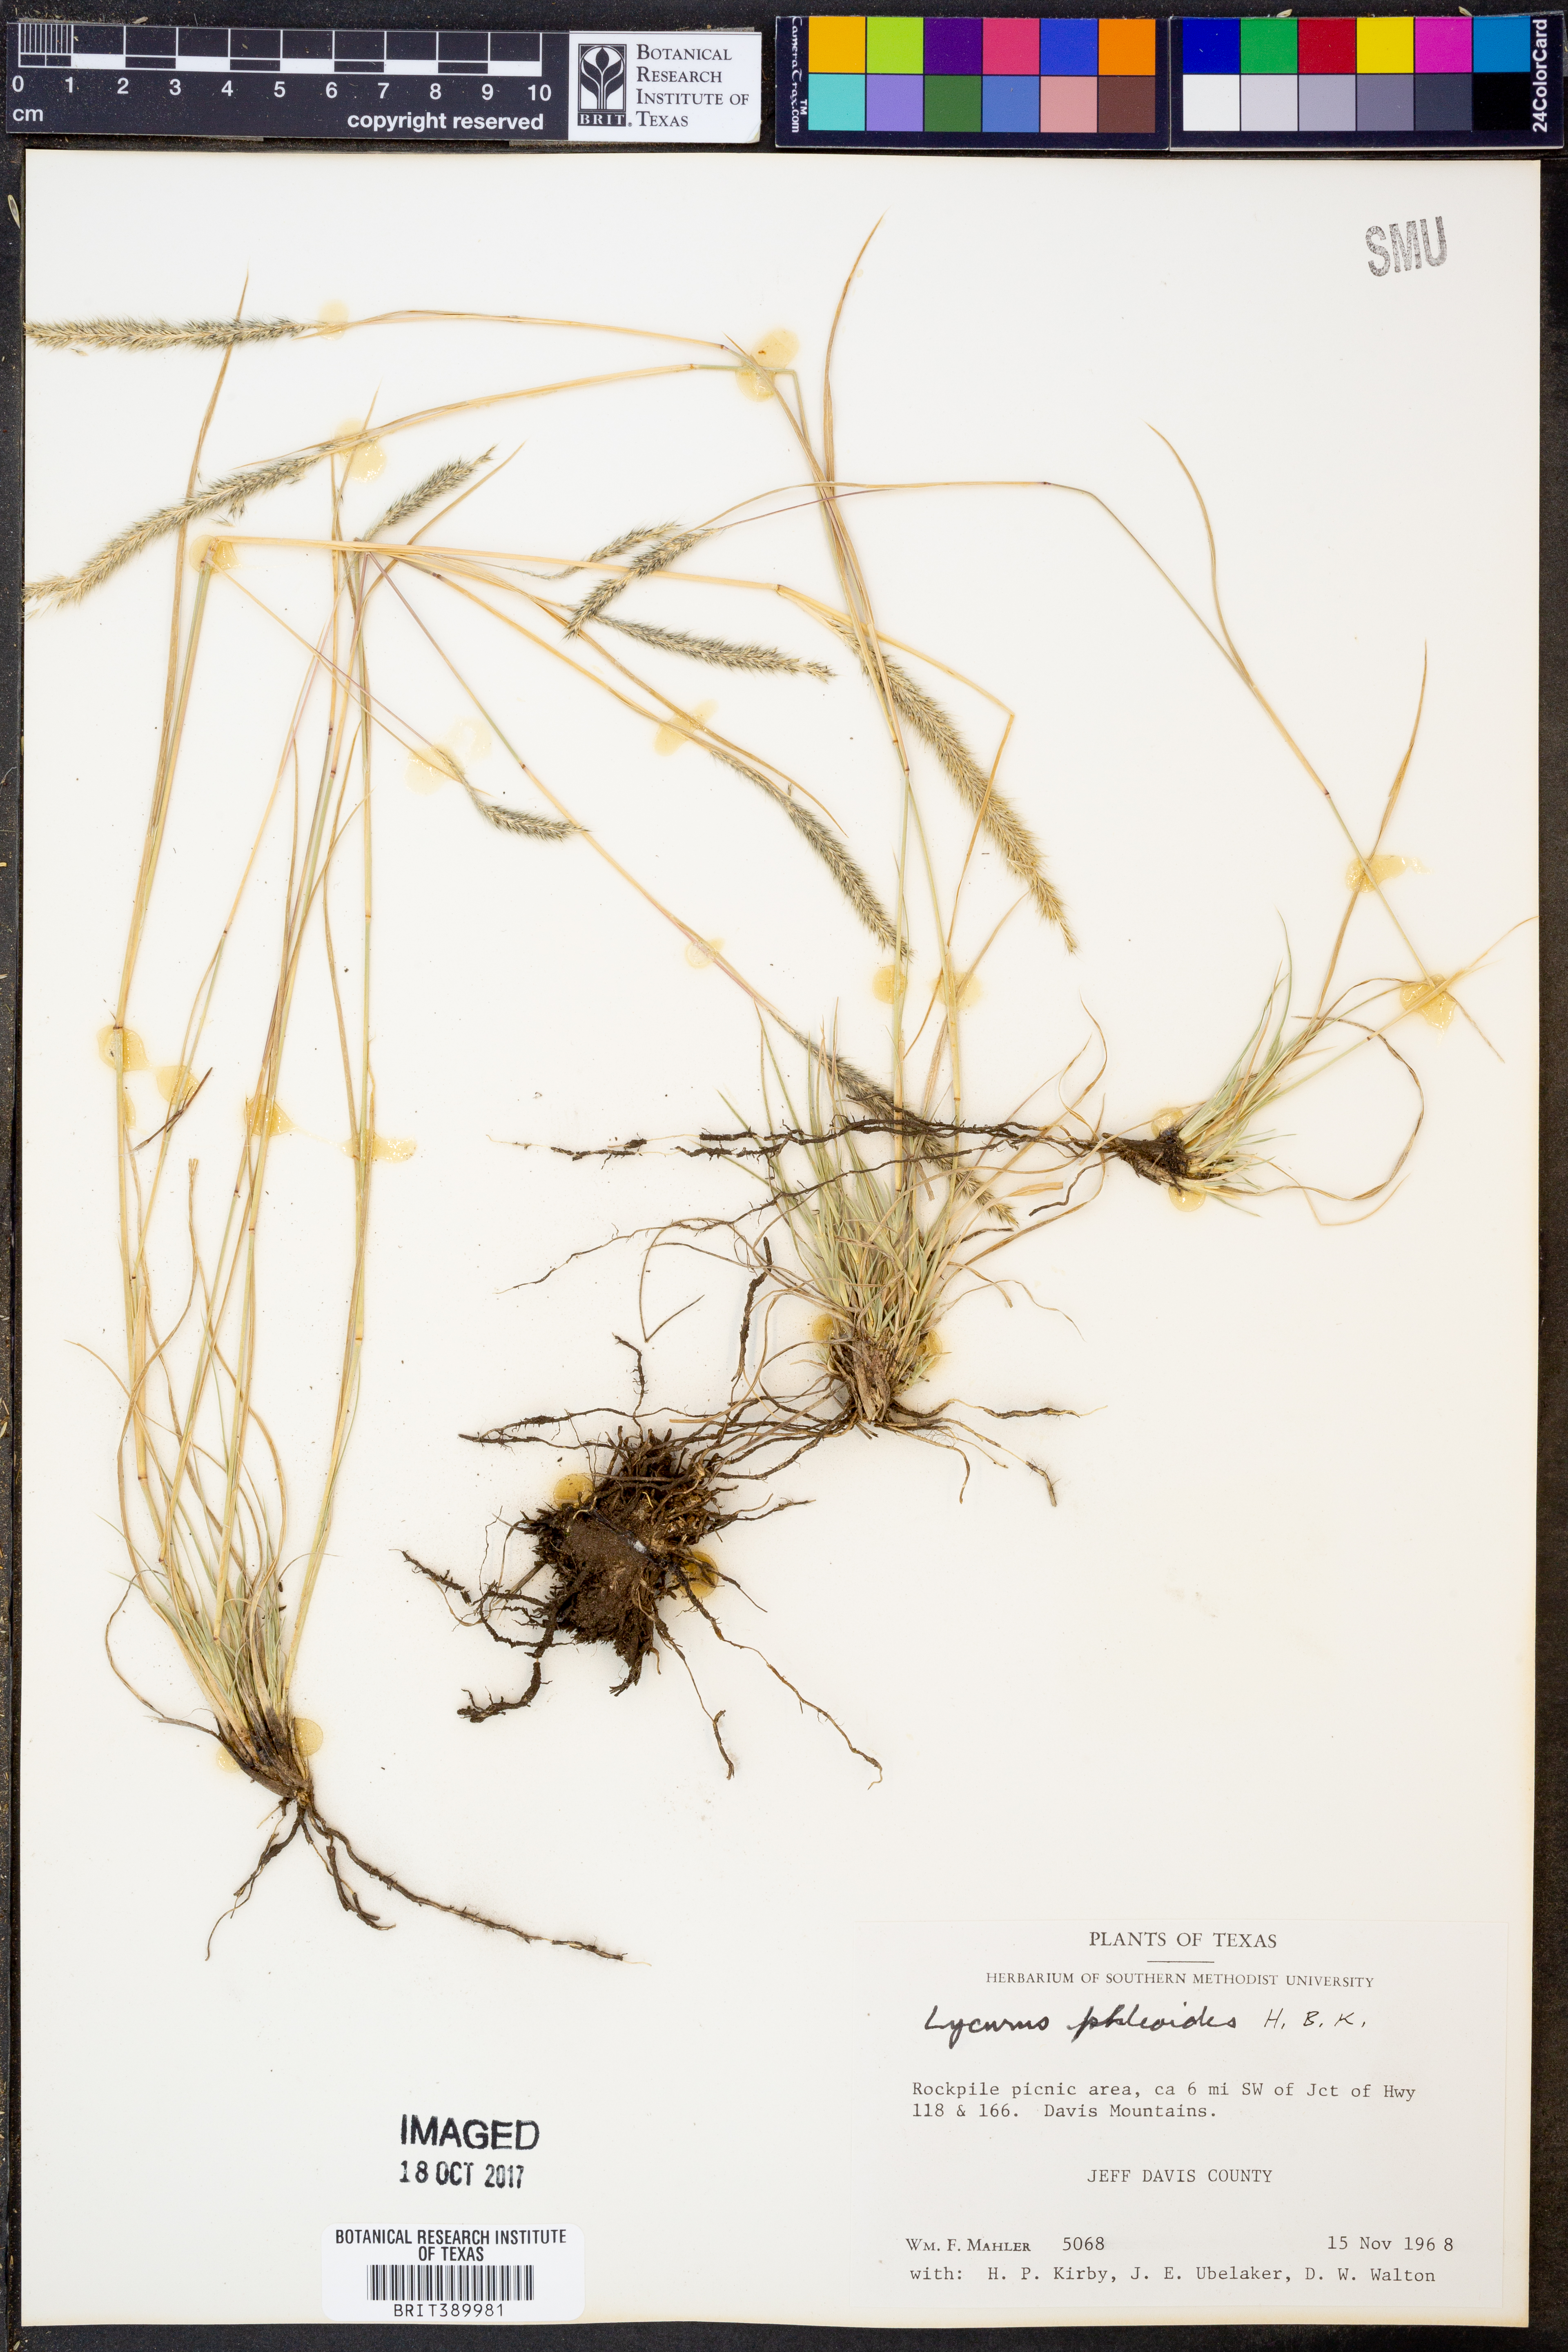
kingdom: Plantae
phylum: Tracheophyta
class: Liliopsida
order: Poales
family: Poaceae
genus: Muhlenbergia
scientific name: Muhlenbergia phleoides
